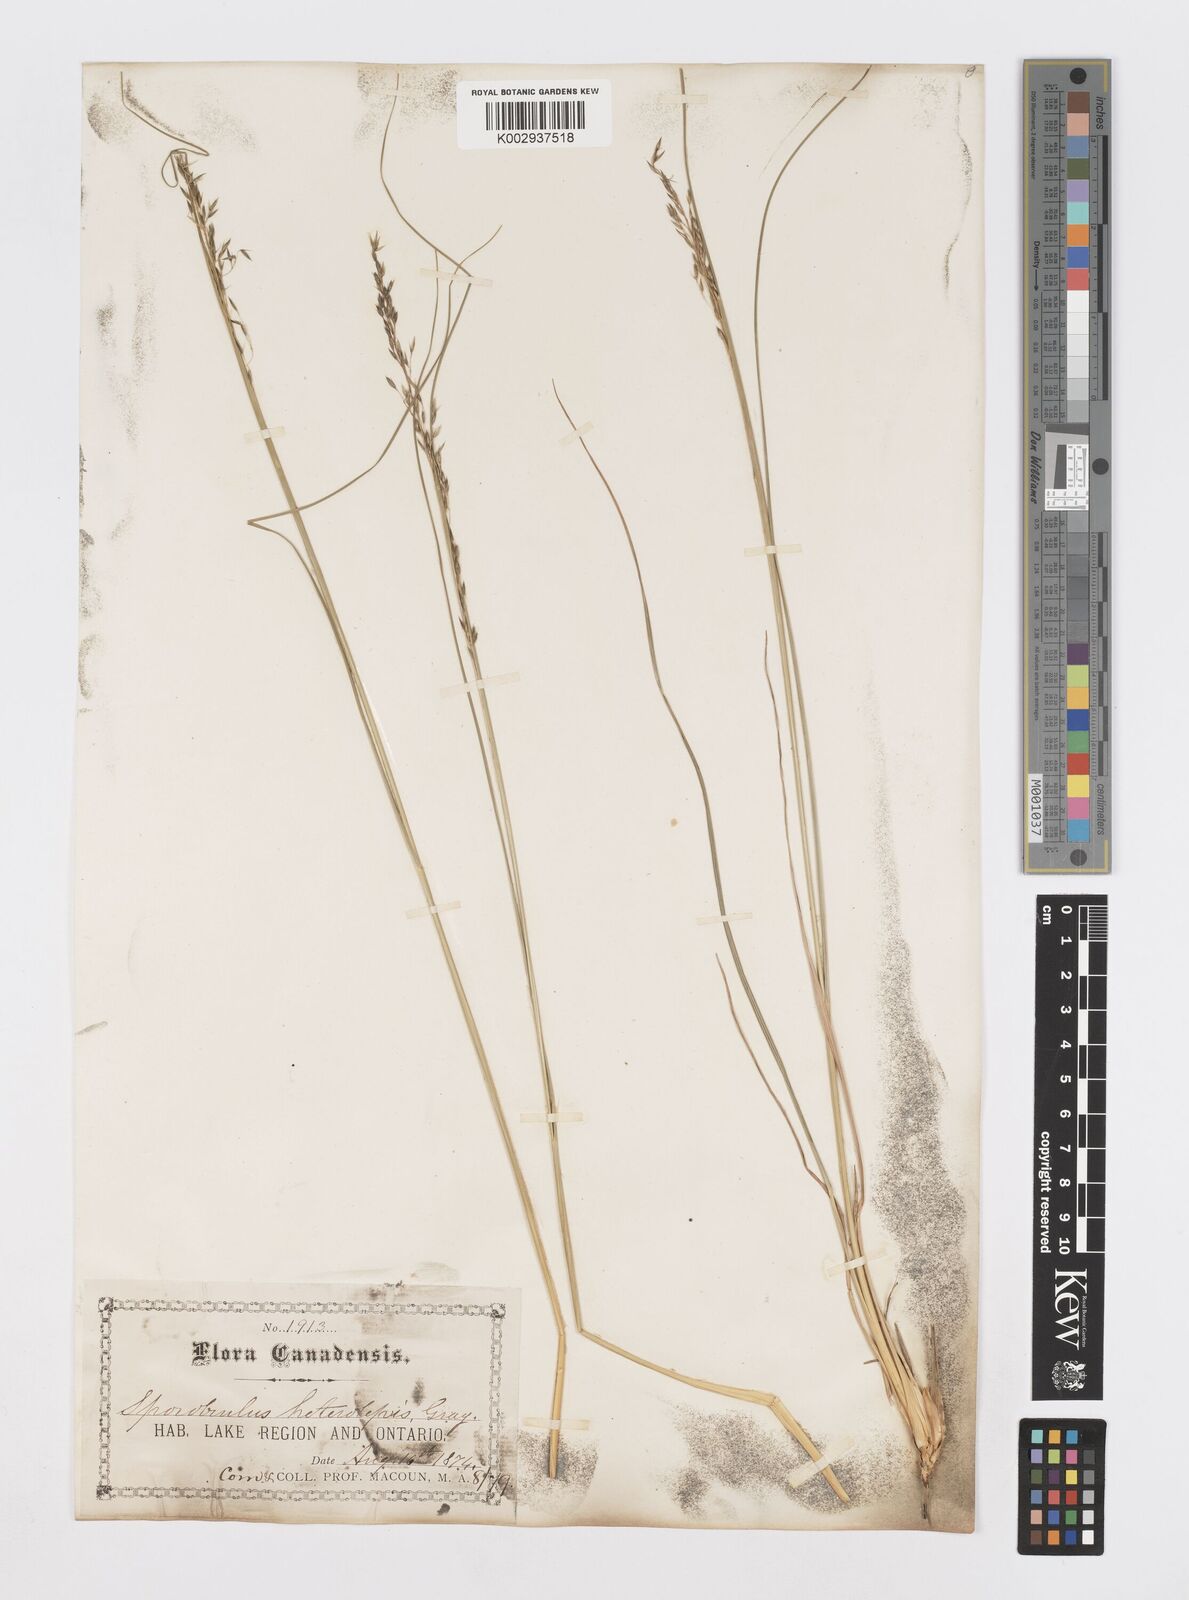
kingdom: Plantae
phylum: Tracheophyta
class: Liliopsida
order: Poales
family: Poaceae
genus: Sporobolus
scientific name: Sporobolus heterolepis
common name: Prairie dropseed
